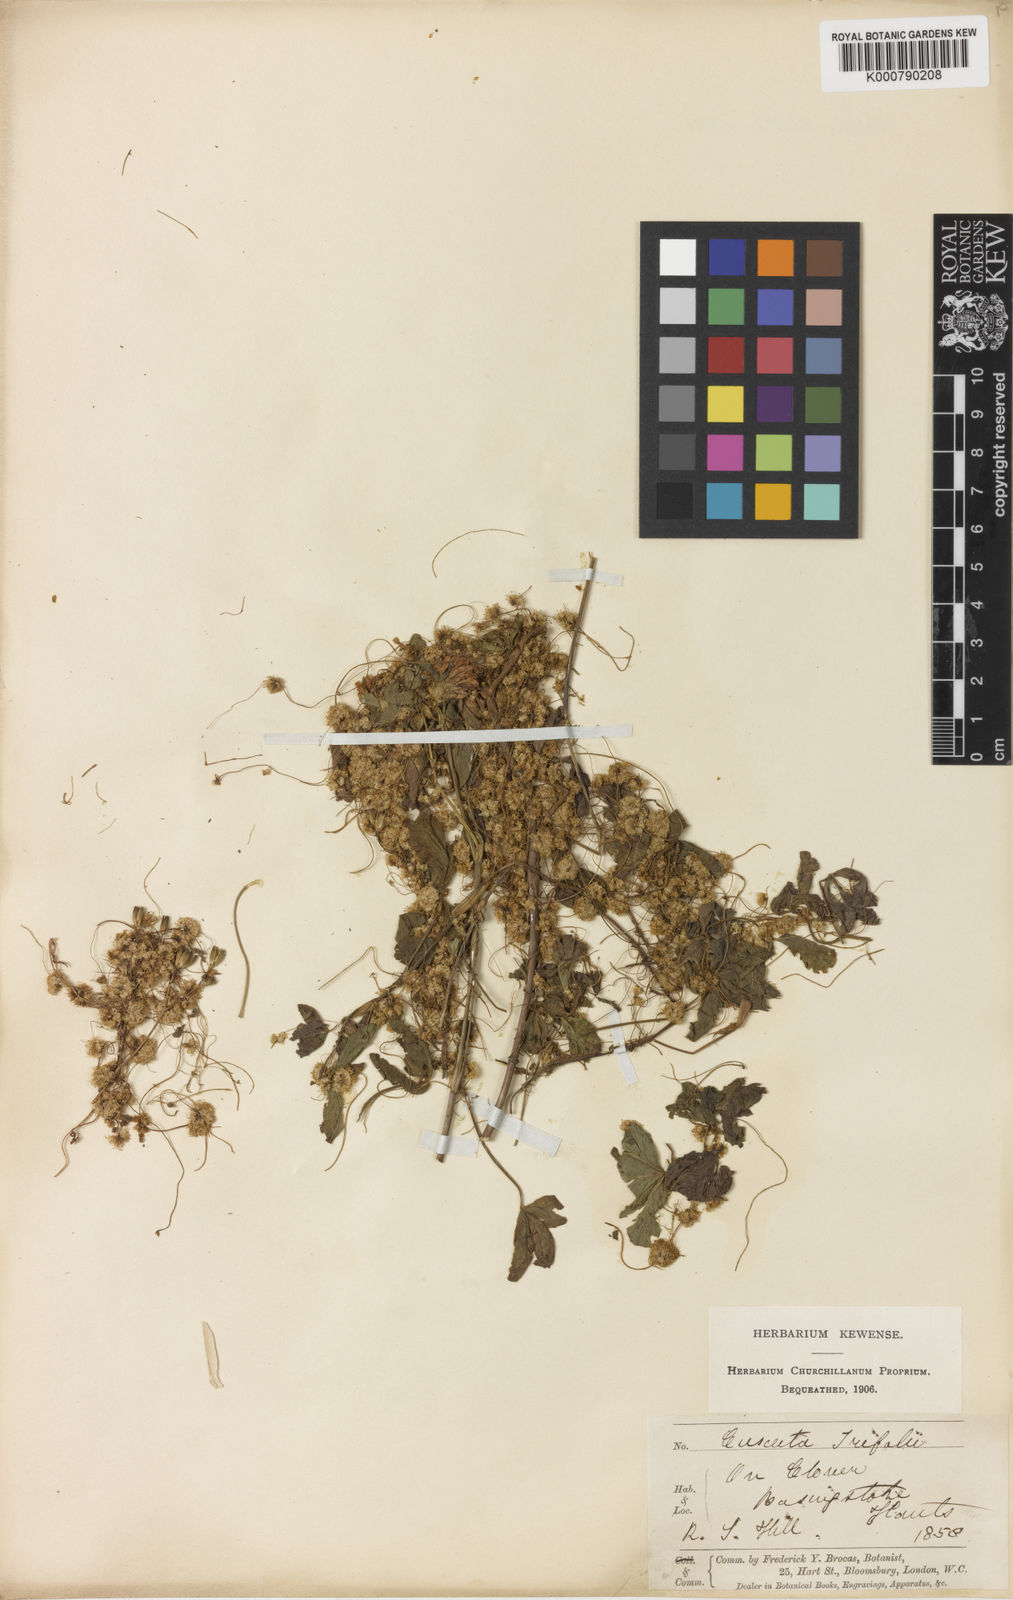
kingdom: Plantae
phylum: Tracheophyta
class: Magnoliopsida
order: Solanales
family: Convolvulaceae
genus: Cuscuta
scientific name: Cuscuta epithymum
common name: Clover dodder
